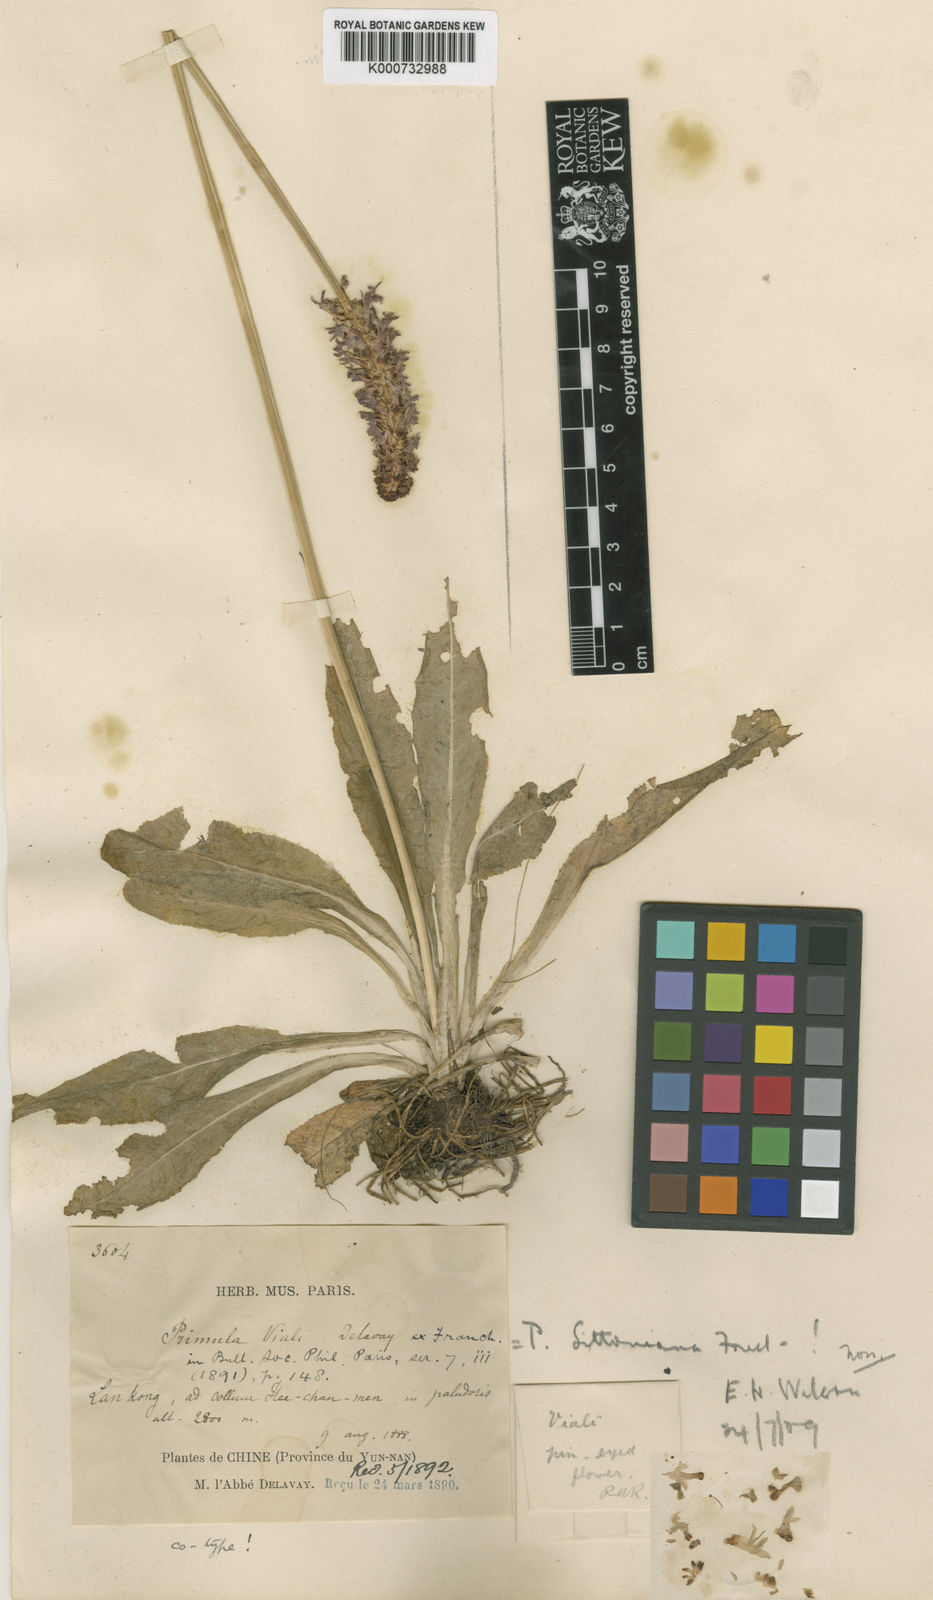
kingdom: Plantae
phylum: Tracheophyta
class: Magnoliopsida
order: Ericales
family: Primulaceae
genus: Primula
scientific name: Primula vialii
